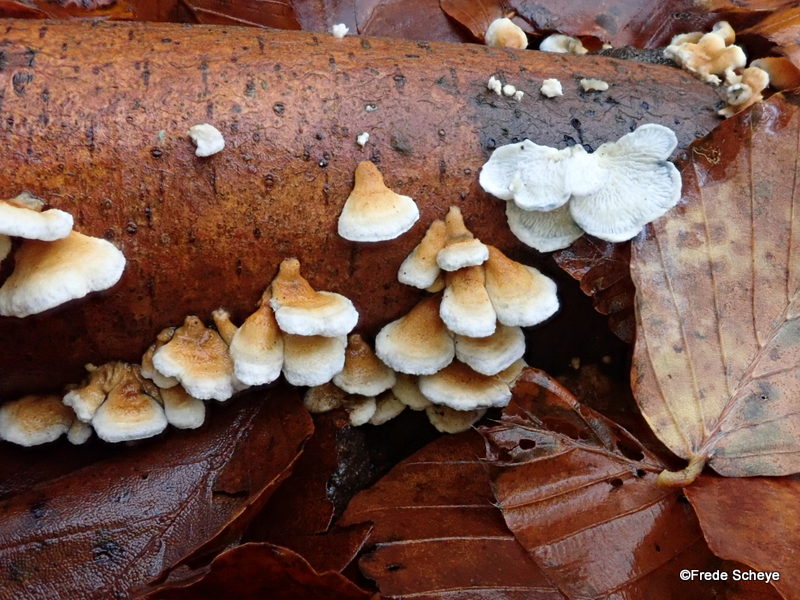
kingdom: Fungi
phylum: Basidiomycota
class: Agaricomycetes
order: Amylocorticiales
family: Amylocorticiaceae
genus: Plicaturopsis
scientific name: Plicaturopsis crispa
